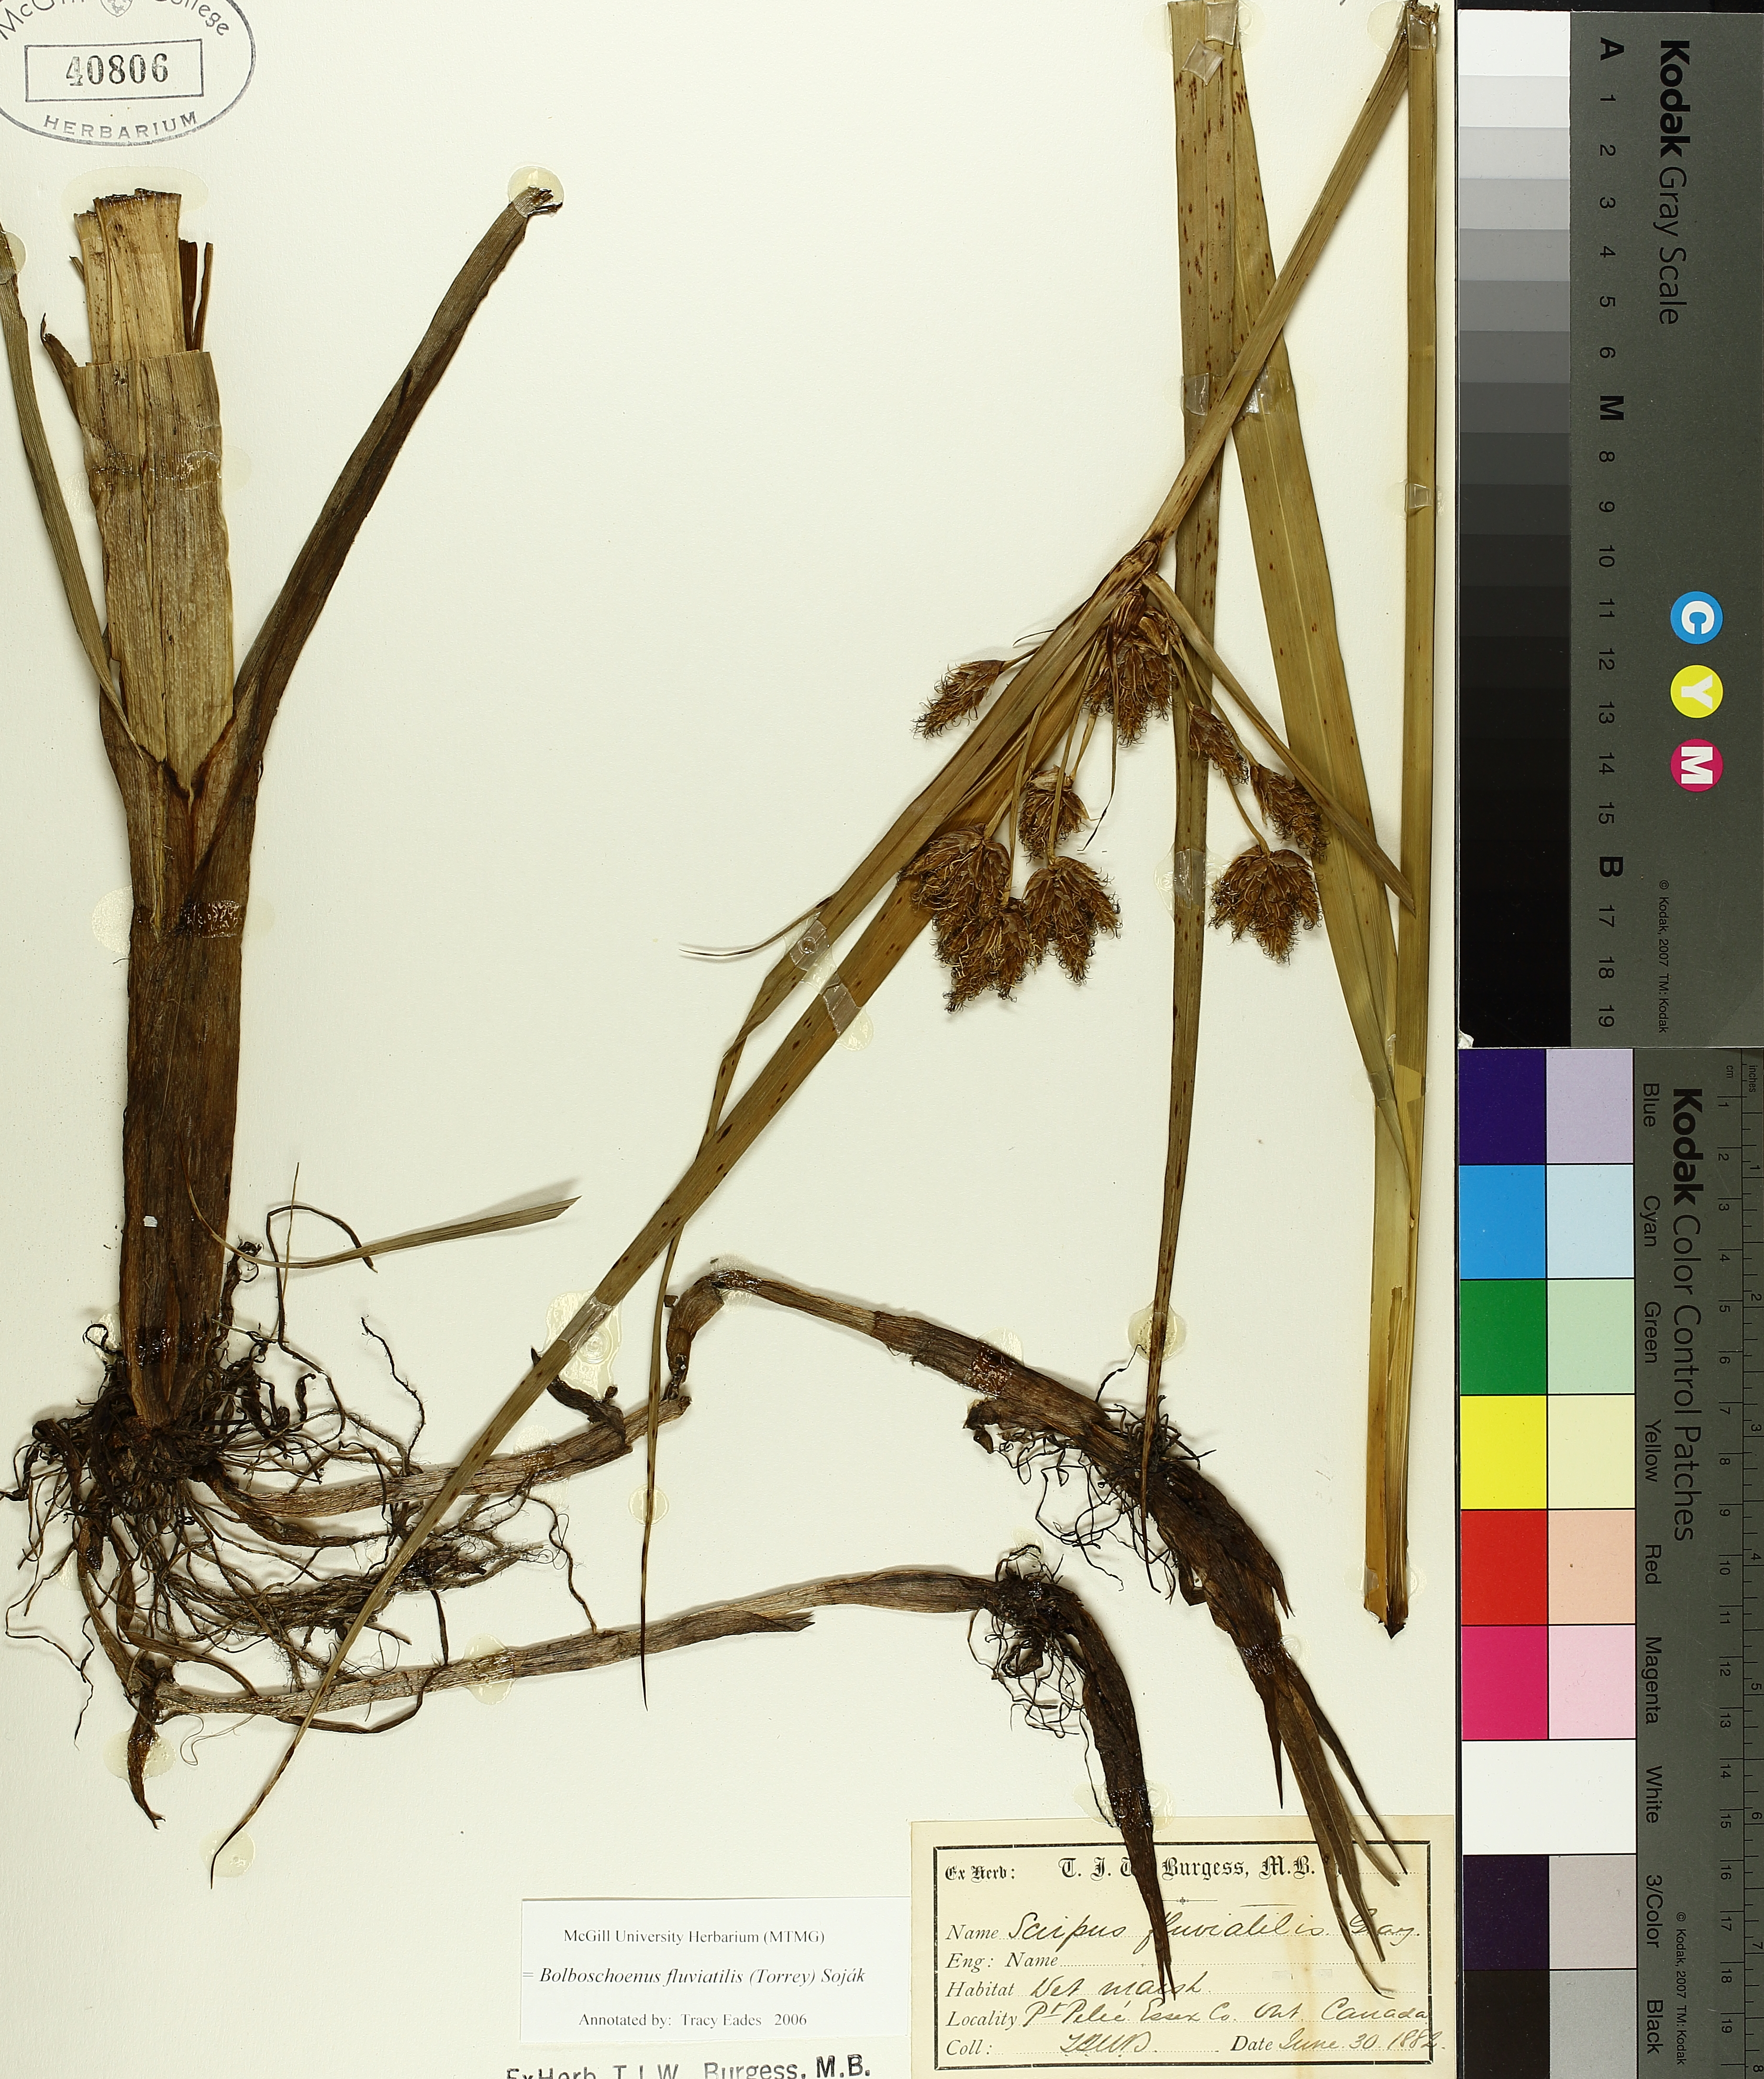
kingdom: Plantae
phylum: Tracheophyta
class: Liliopsida
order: Poales
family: Cyperaceae
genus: Bolboschoenus
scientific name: Bolboschoenus fluviatilis
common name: River bulrush
